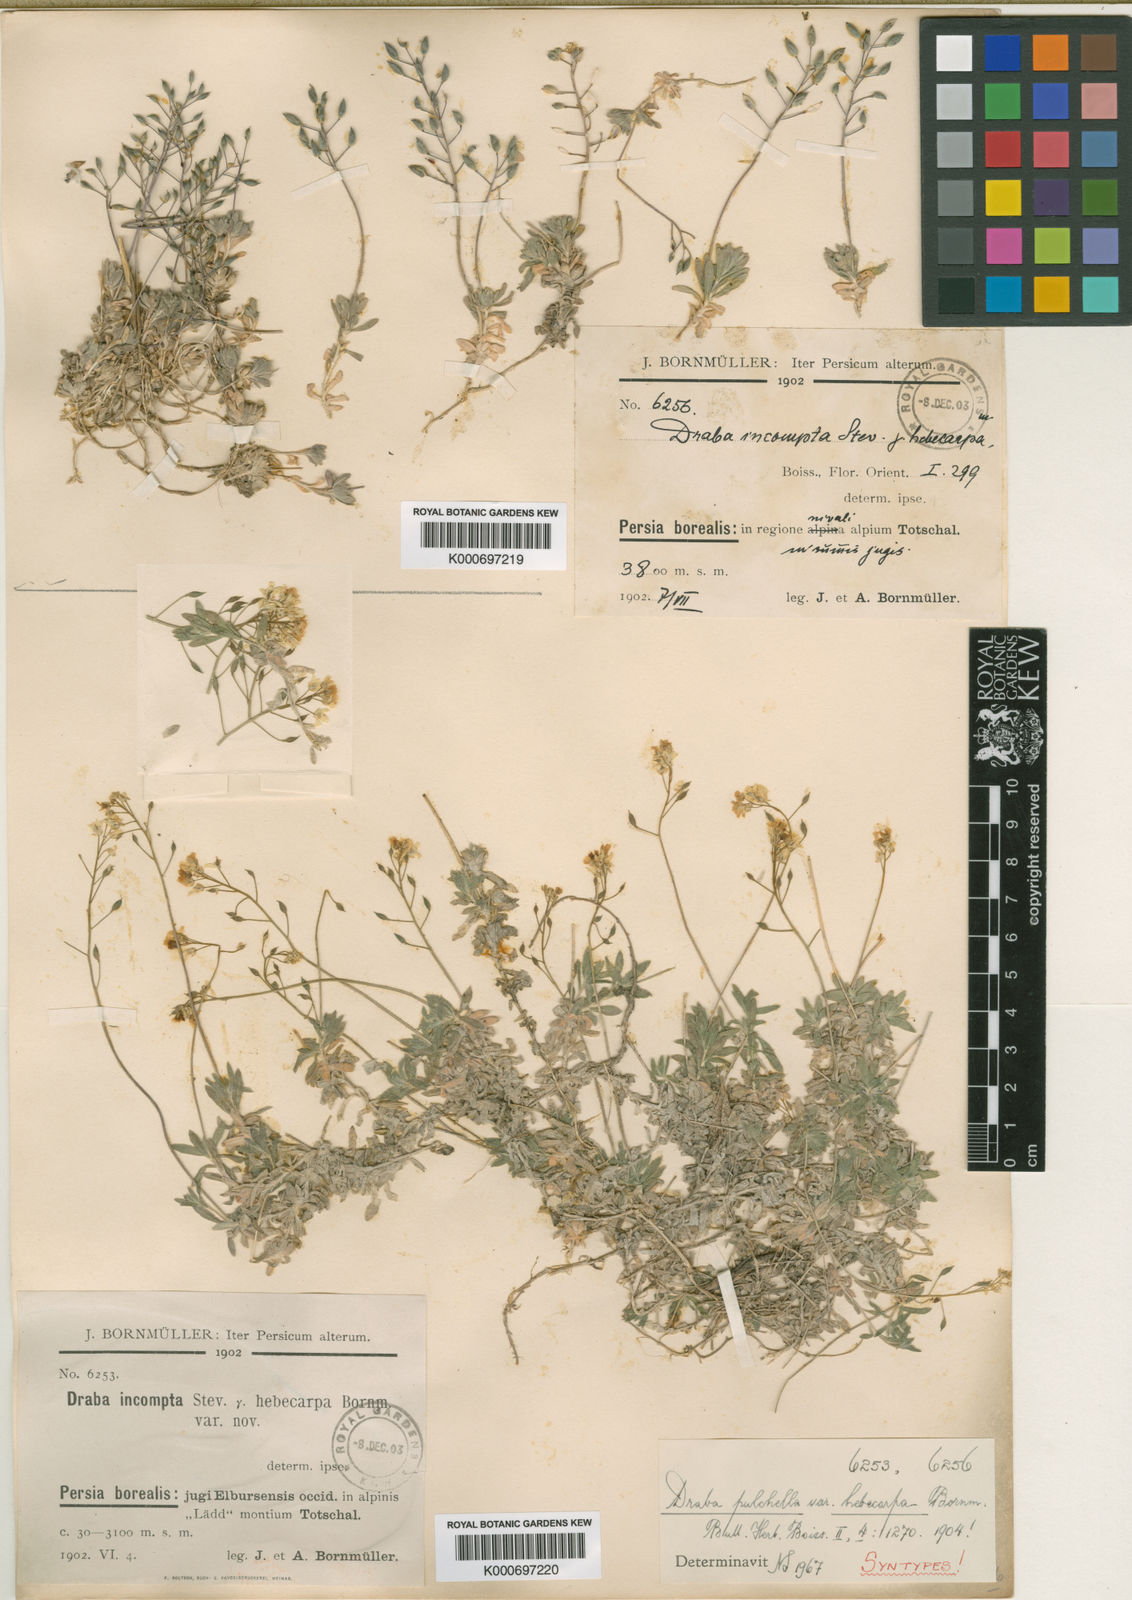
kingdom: Plantae
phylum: Tracheophyta
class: Magnoliopsida
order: Brassicales
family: Brassicaceae
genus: Draba
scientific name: Draba pulchella
